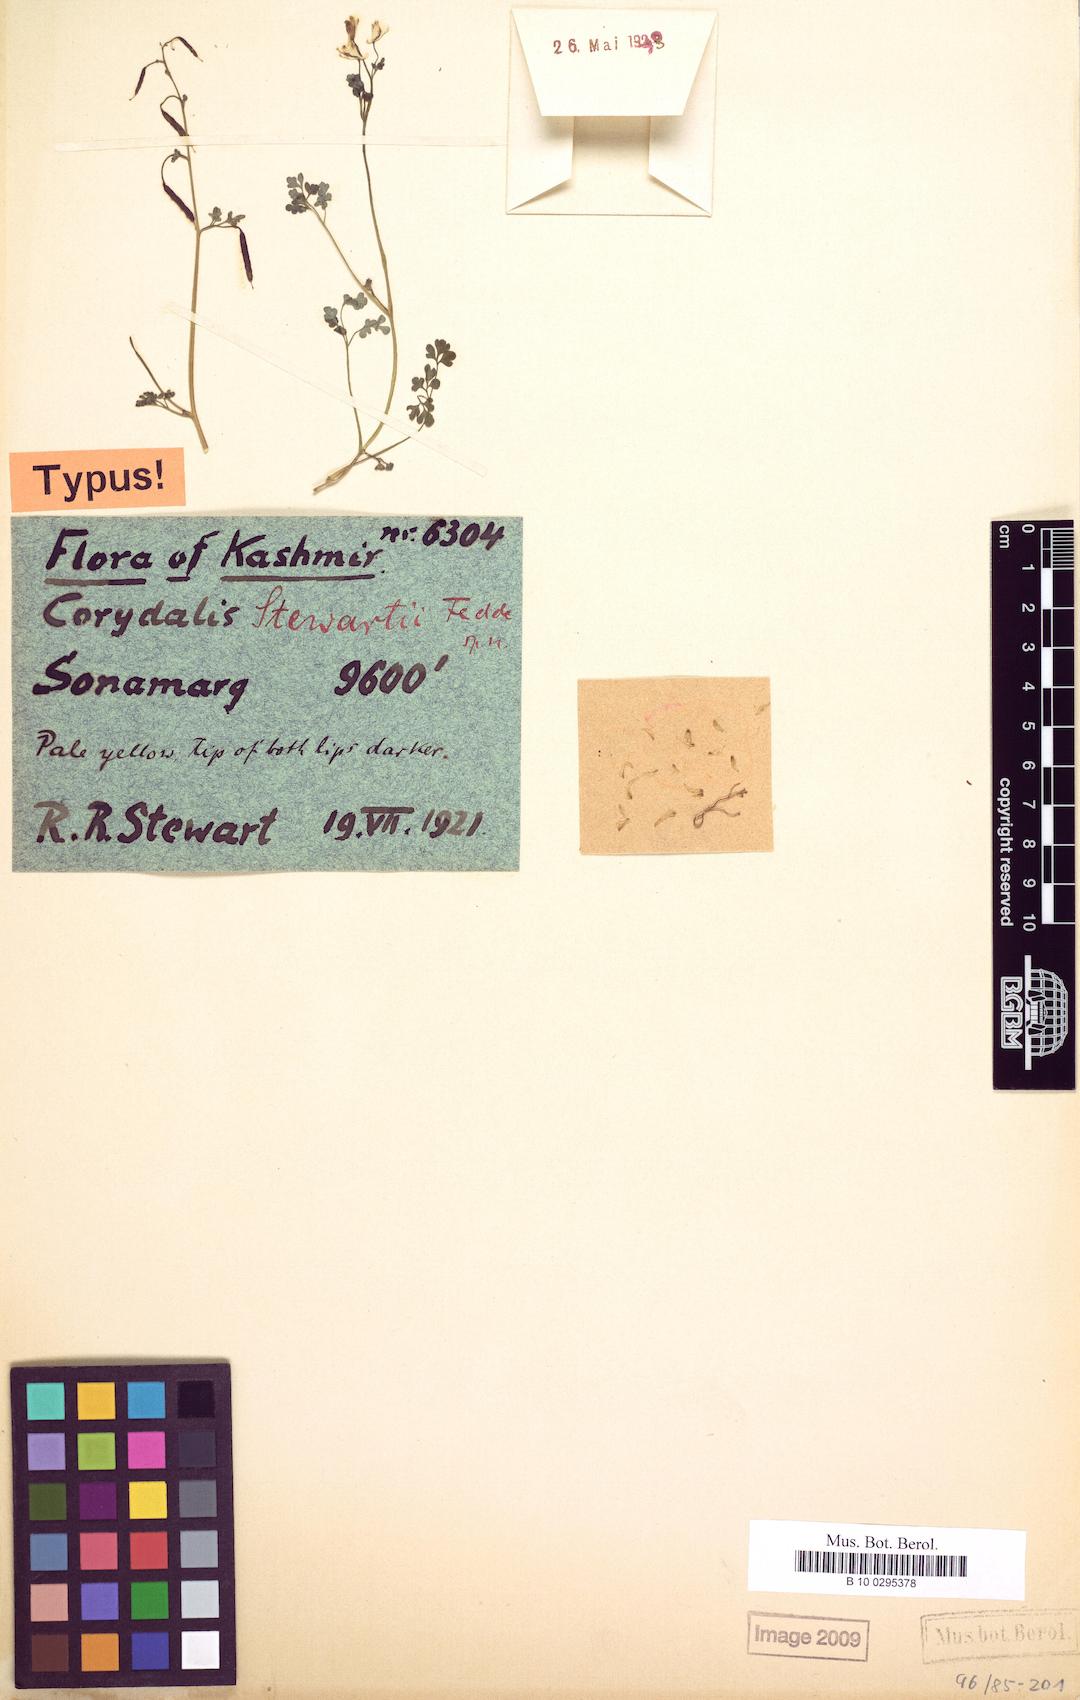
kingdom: Plantae
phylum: Tracheophyta
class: Magnoliopsida
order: Ranunculales
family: Papaveraceae
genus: Corydalis
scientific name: Corydalis casimiriana
